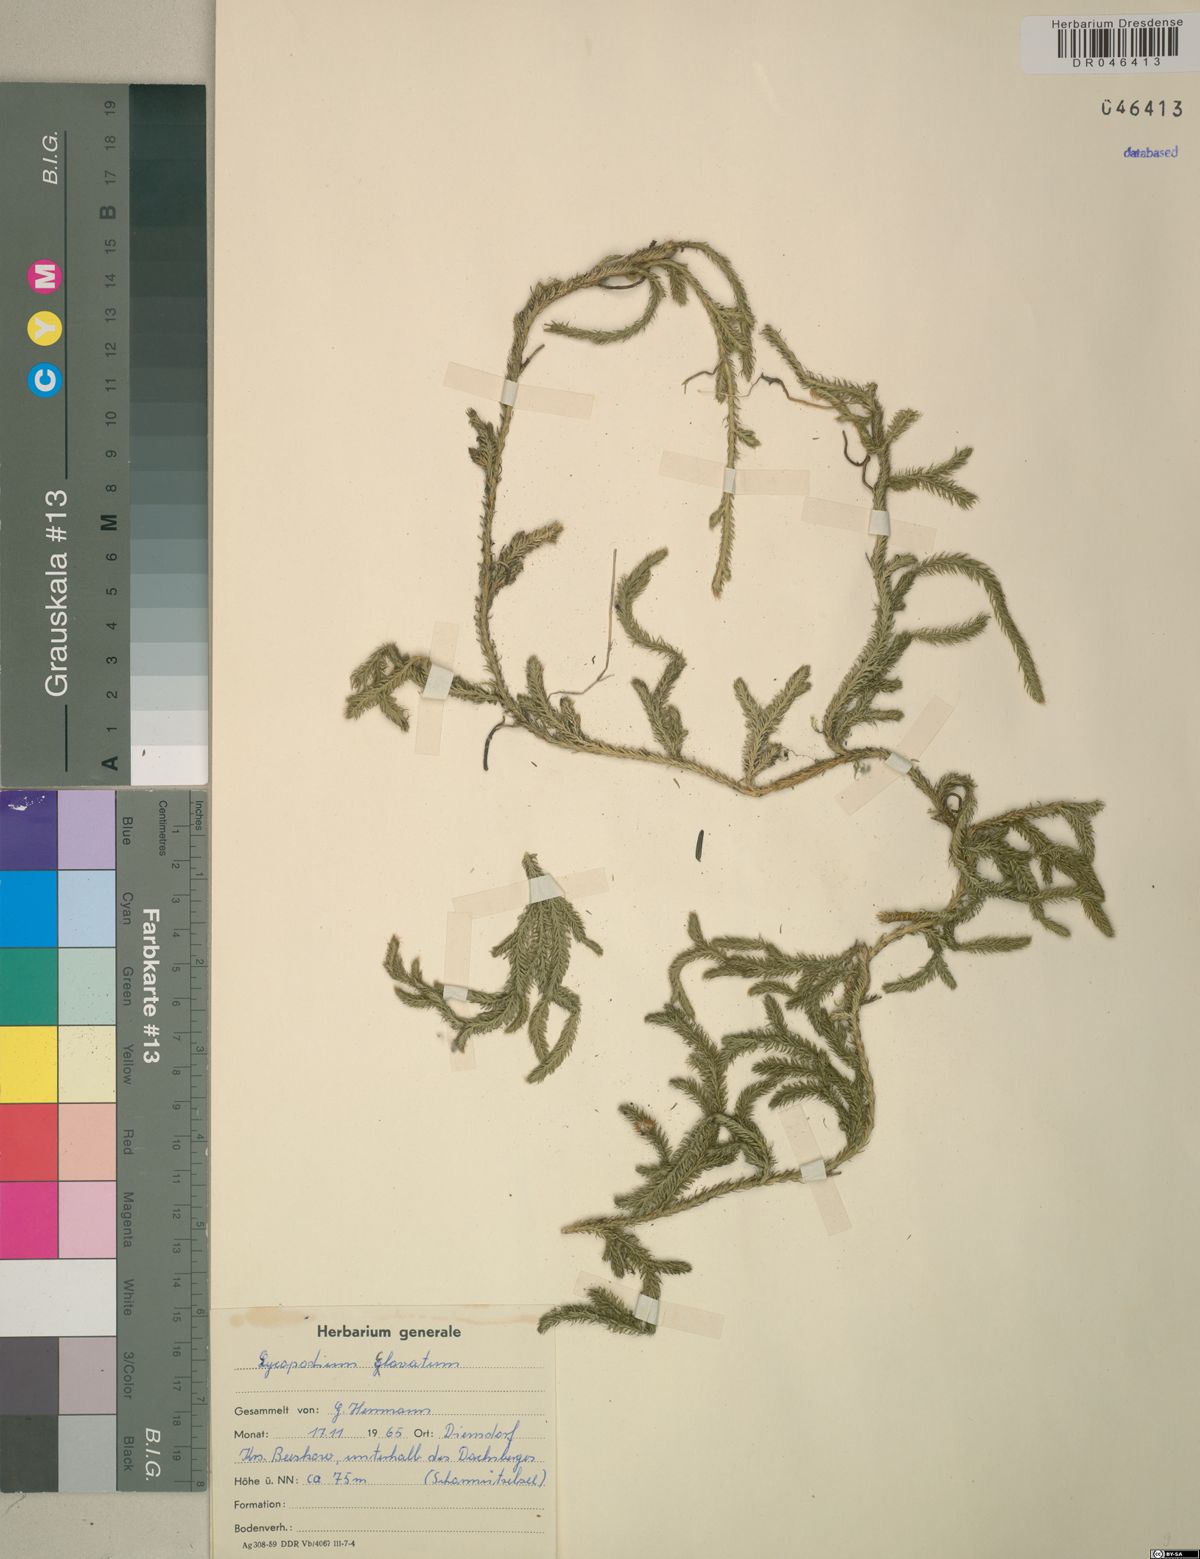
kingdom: Plantae
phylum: Tracheophyta
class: Lycopodiopsida
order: Lycopodiales
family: Lycopodiaceae
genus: Lycopodium
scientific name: Lycopodium clavatum
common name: Stag's-horn clubmoss
